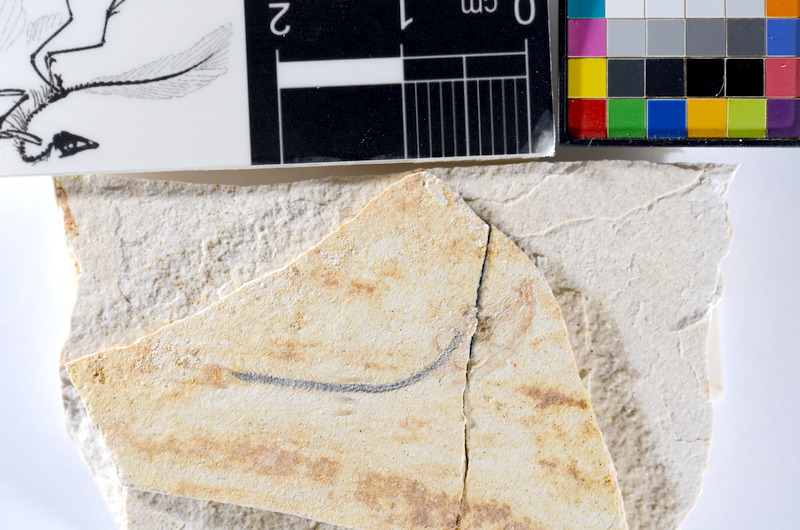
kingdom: Animalia
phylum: Chordata
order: Salmoniformes
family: Orthogonikleithridae
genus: Orthogonikleithrus
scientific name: Orthogonikleithrus hoelli
